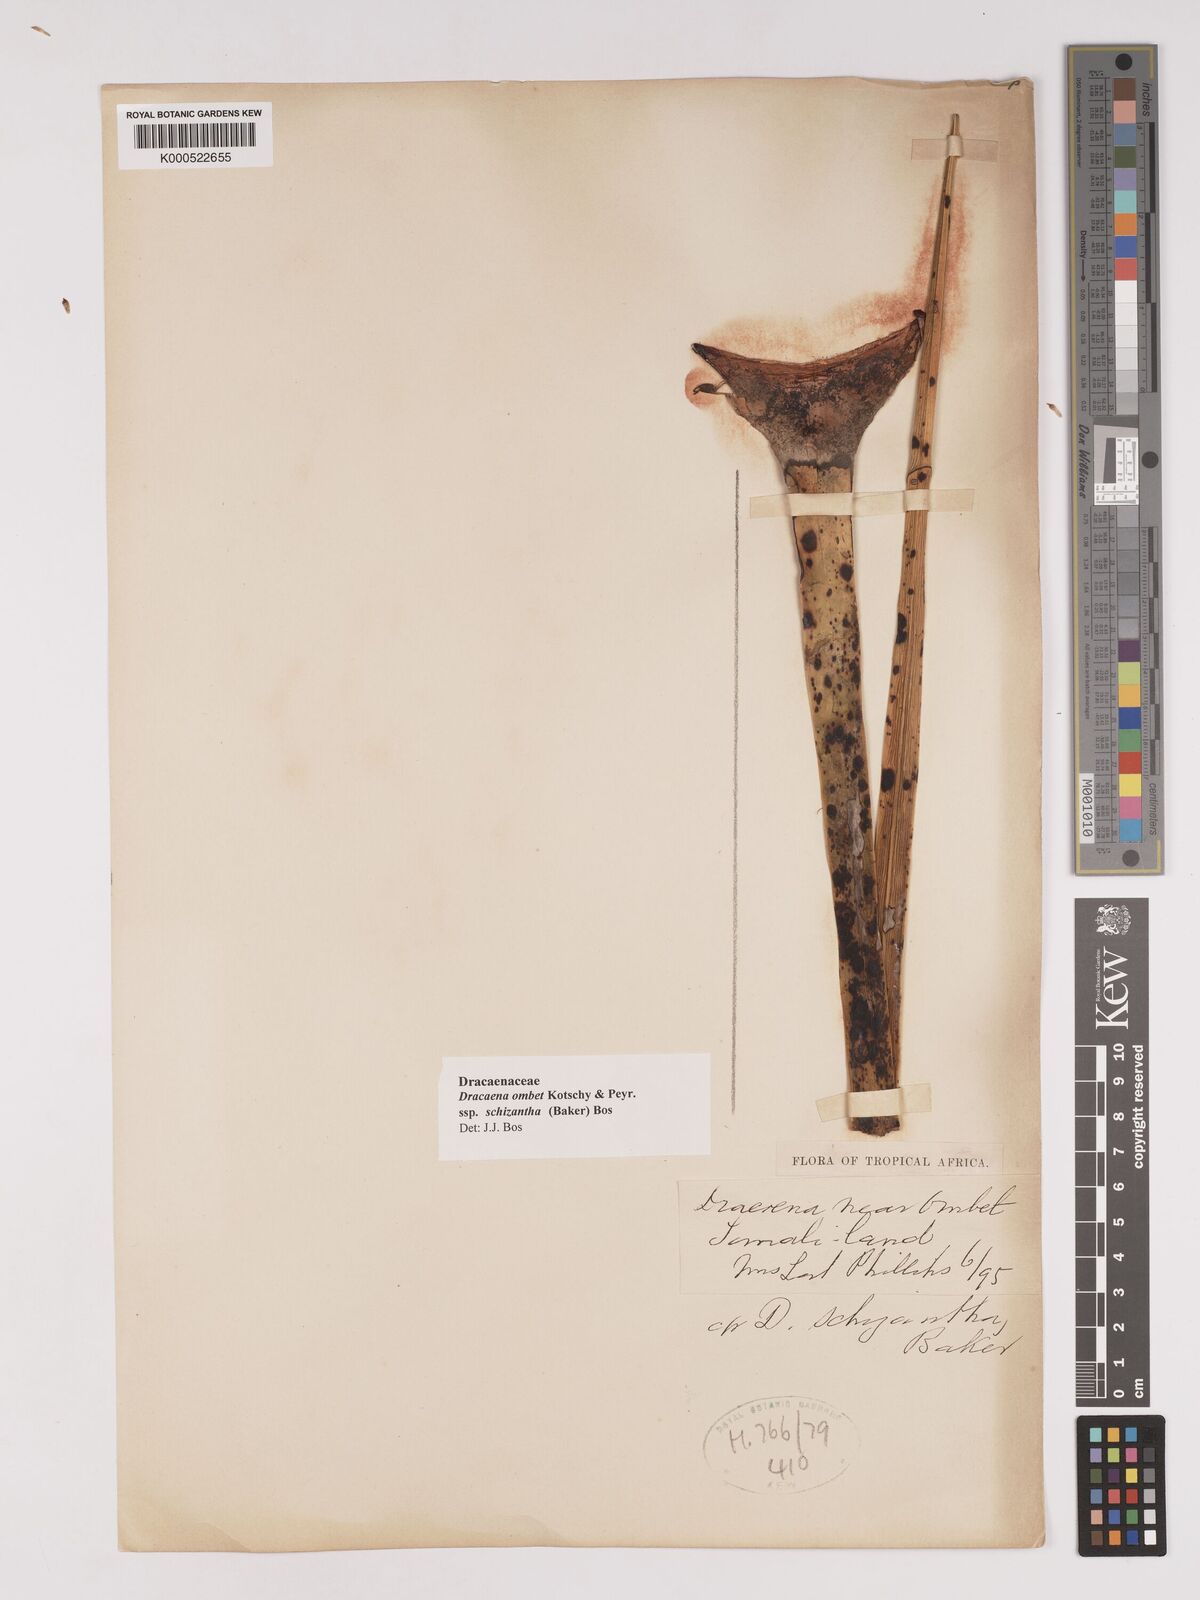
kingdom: Plantae
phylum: Tracheophyta
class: Liliopsida
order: Asparagales
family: Asparagaceae
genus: Dracaena
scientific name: Dracaena ombet
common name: Gabal elba dragon tree
